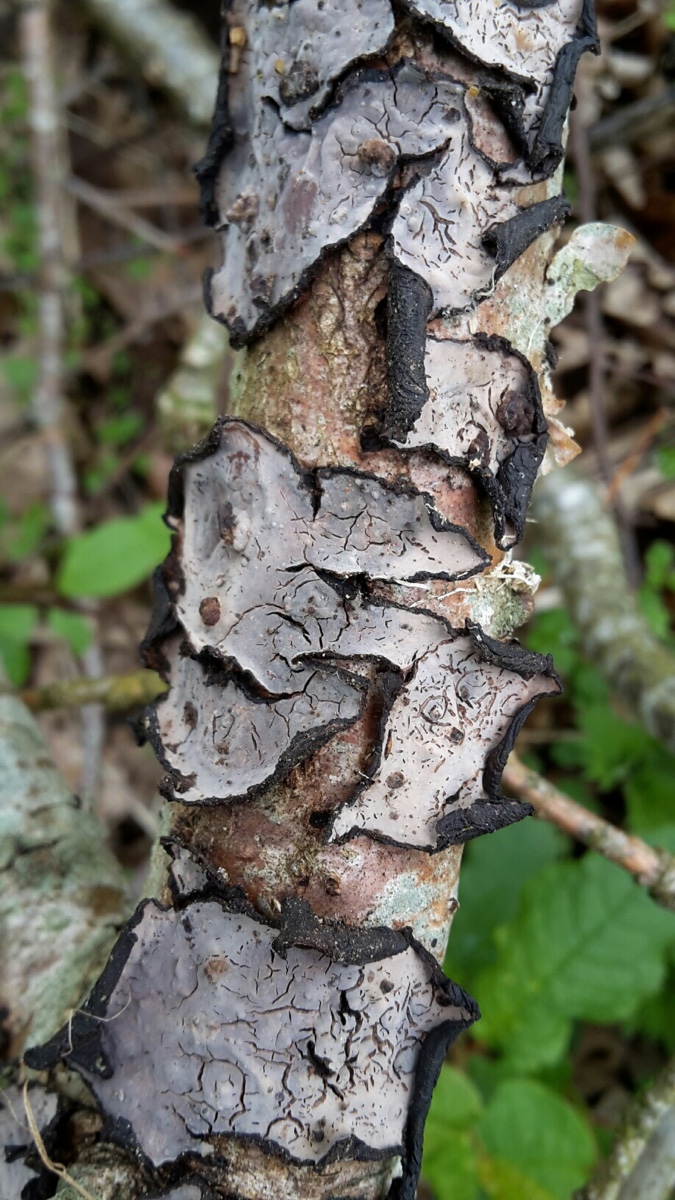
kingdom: Fungi
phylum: Basidiomycota
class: Agaricomycetes
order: Russulales
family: Peniophoraceae
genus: Peniophora
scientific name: Peniophora quercina
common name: ege-voksskind
